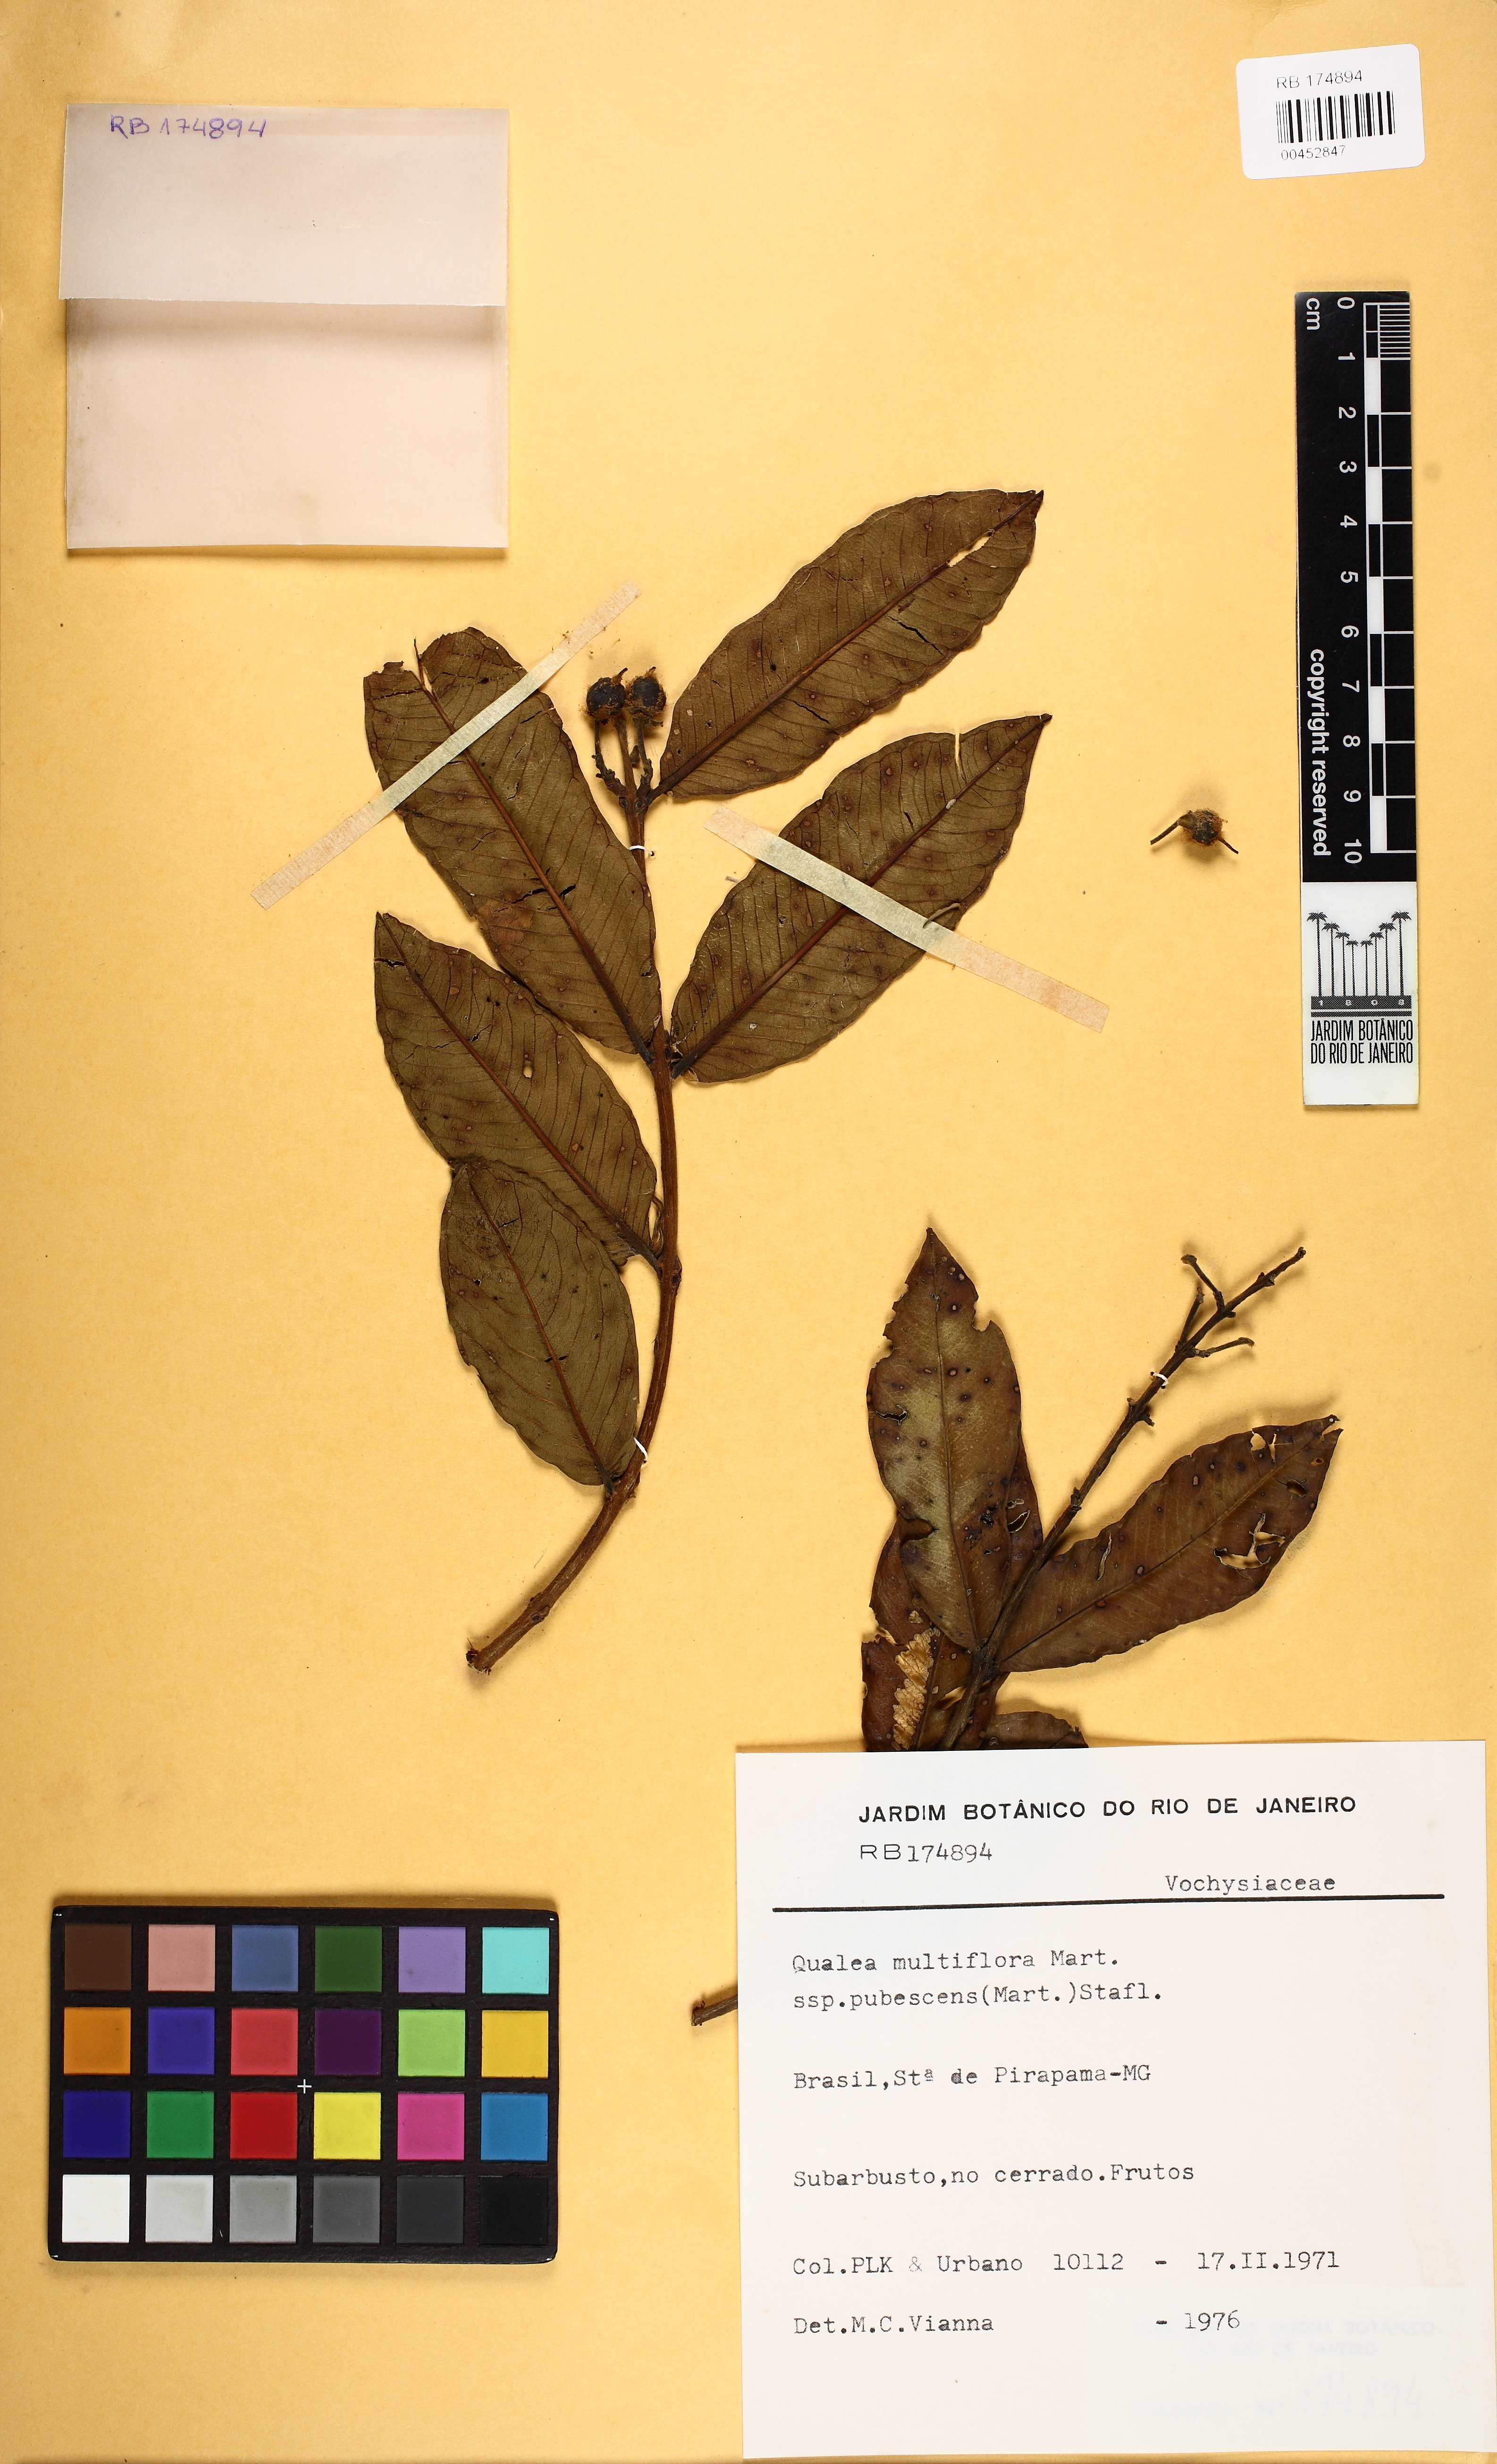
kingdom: Plantae
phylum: Tracheophyta
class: Magnoliopsida
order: Myrtales
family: Vochysiaceae
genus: Qualea
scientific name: Qualea multiflora
